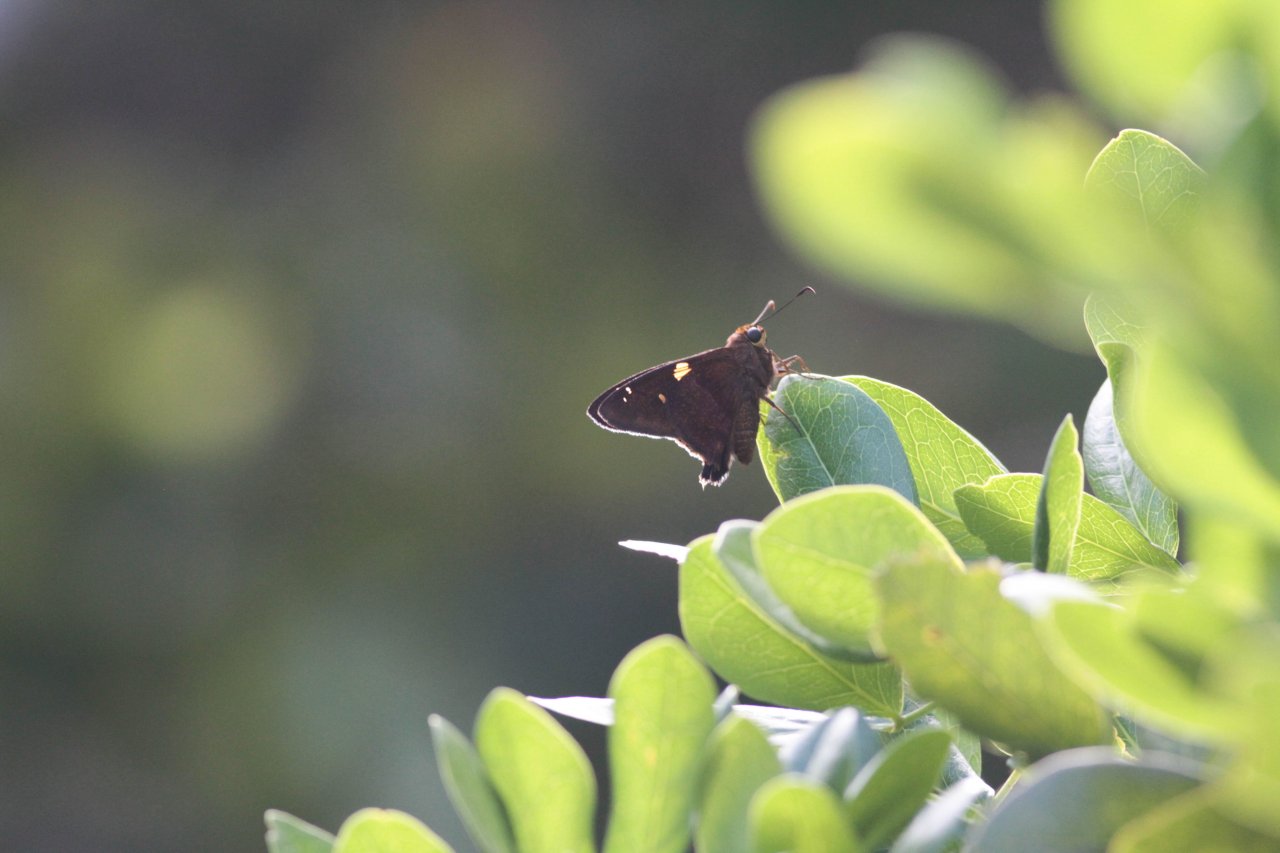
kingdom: Animalia
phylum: Arthropoda
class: Insecta
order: Lepidoptera
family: Hesperiidae
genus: Epargyreus
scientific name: Epargyreus zestos
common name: Zestos Skipper
